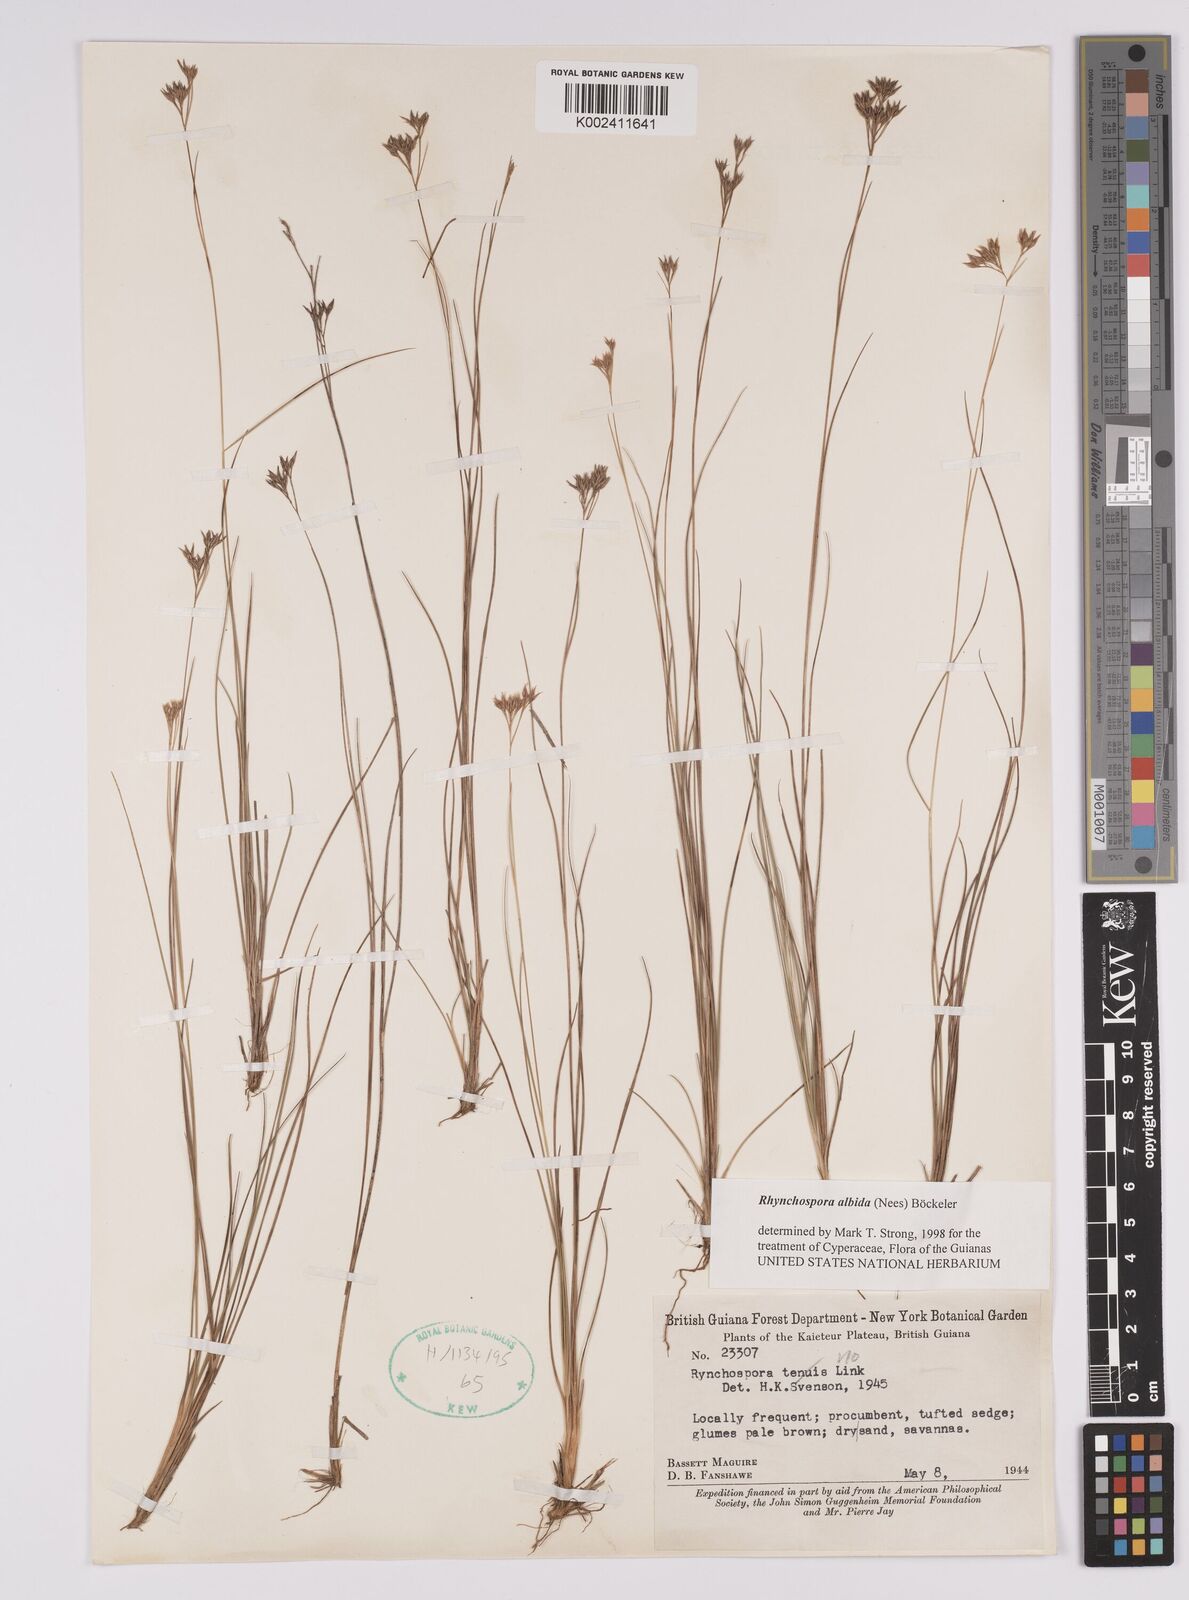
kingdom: Plantae
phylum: Tracheophyta
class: Liliopsida
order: Poales
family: Cyperaceae
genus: Rhynchospora
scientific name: Rhynchospora albida
